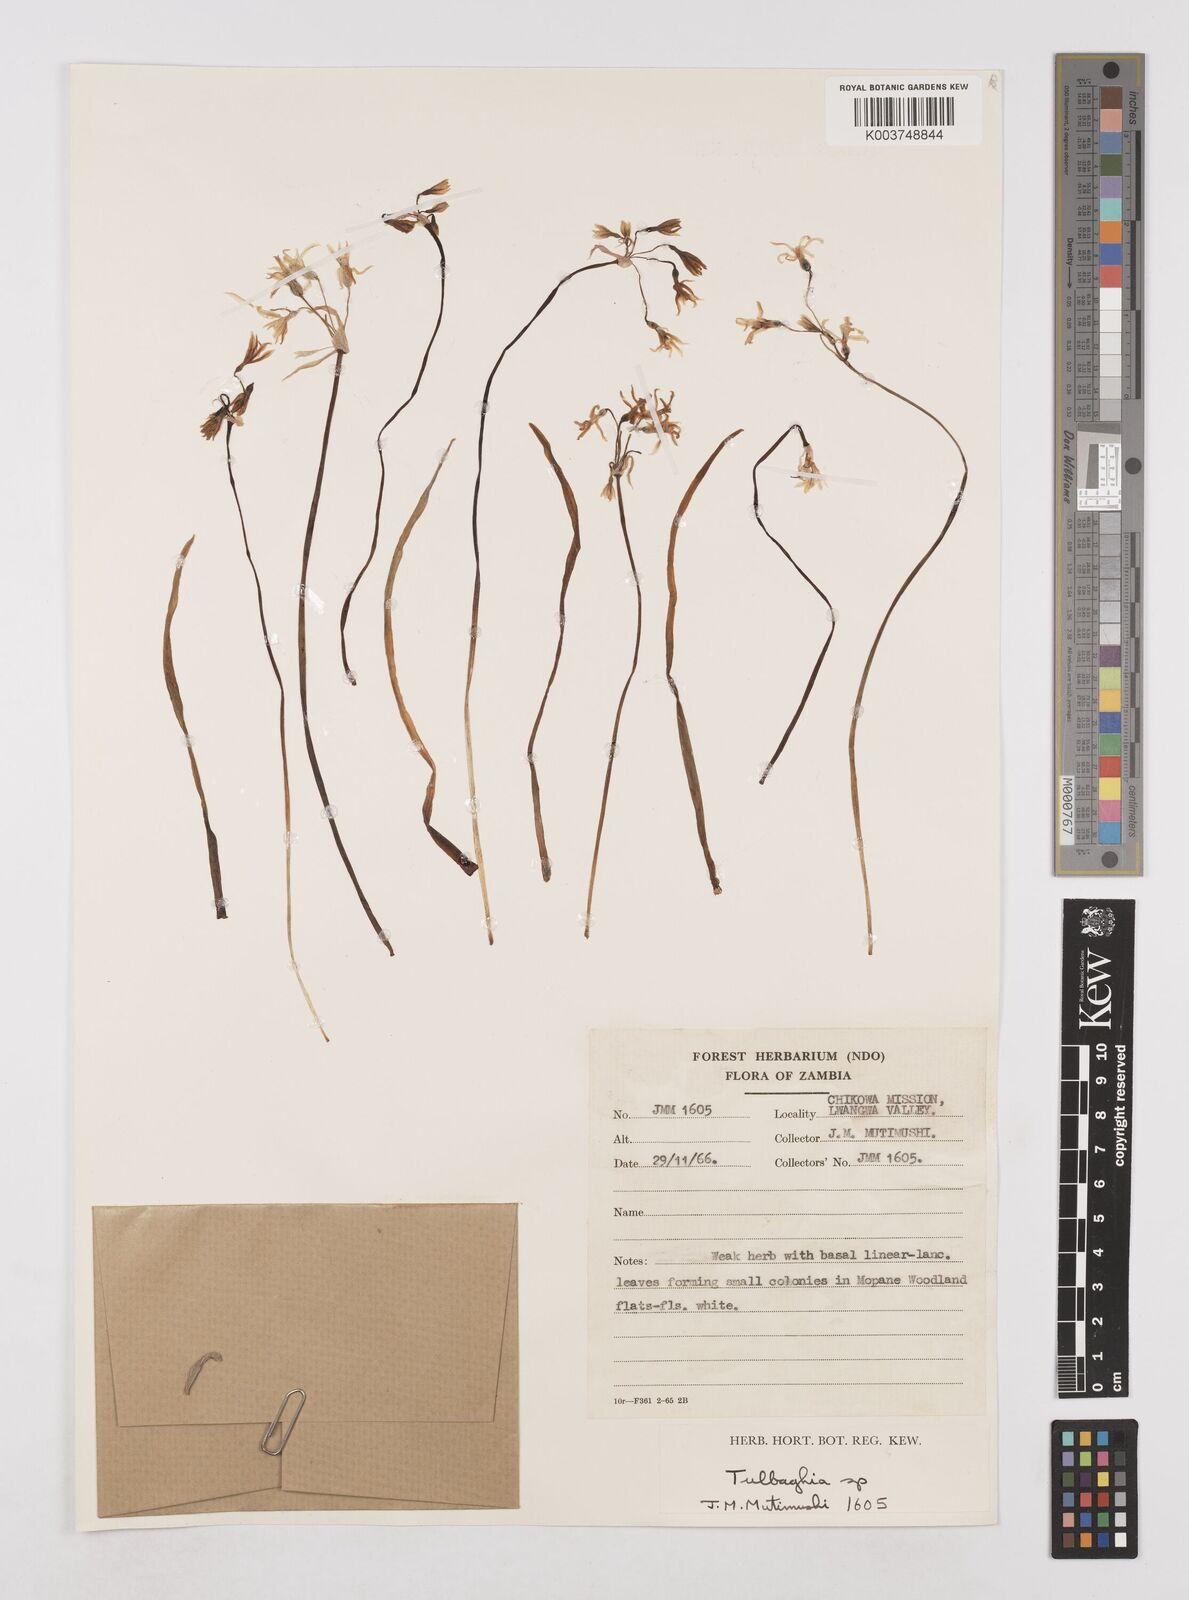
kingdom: Plantae
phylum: Tracheophyta
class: Liliopsida
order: Asparagales
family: Amaryllidaceae
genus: Tulbaghia
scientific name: Tulbaghia cameronii
